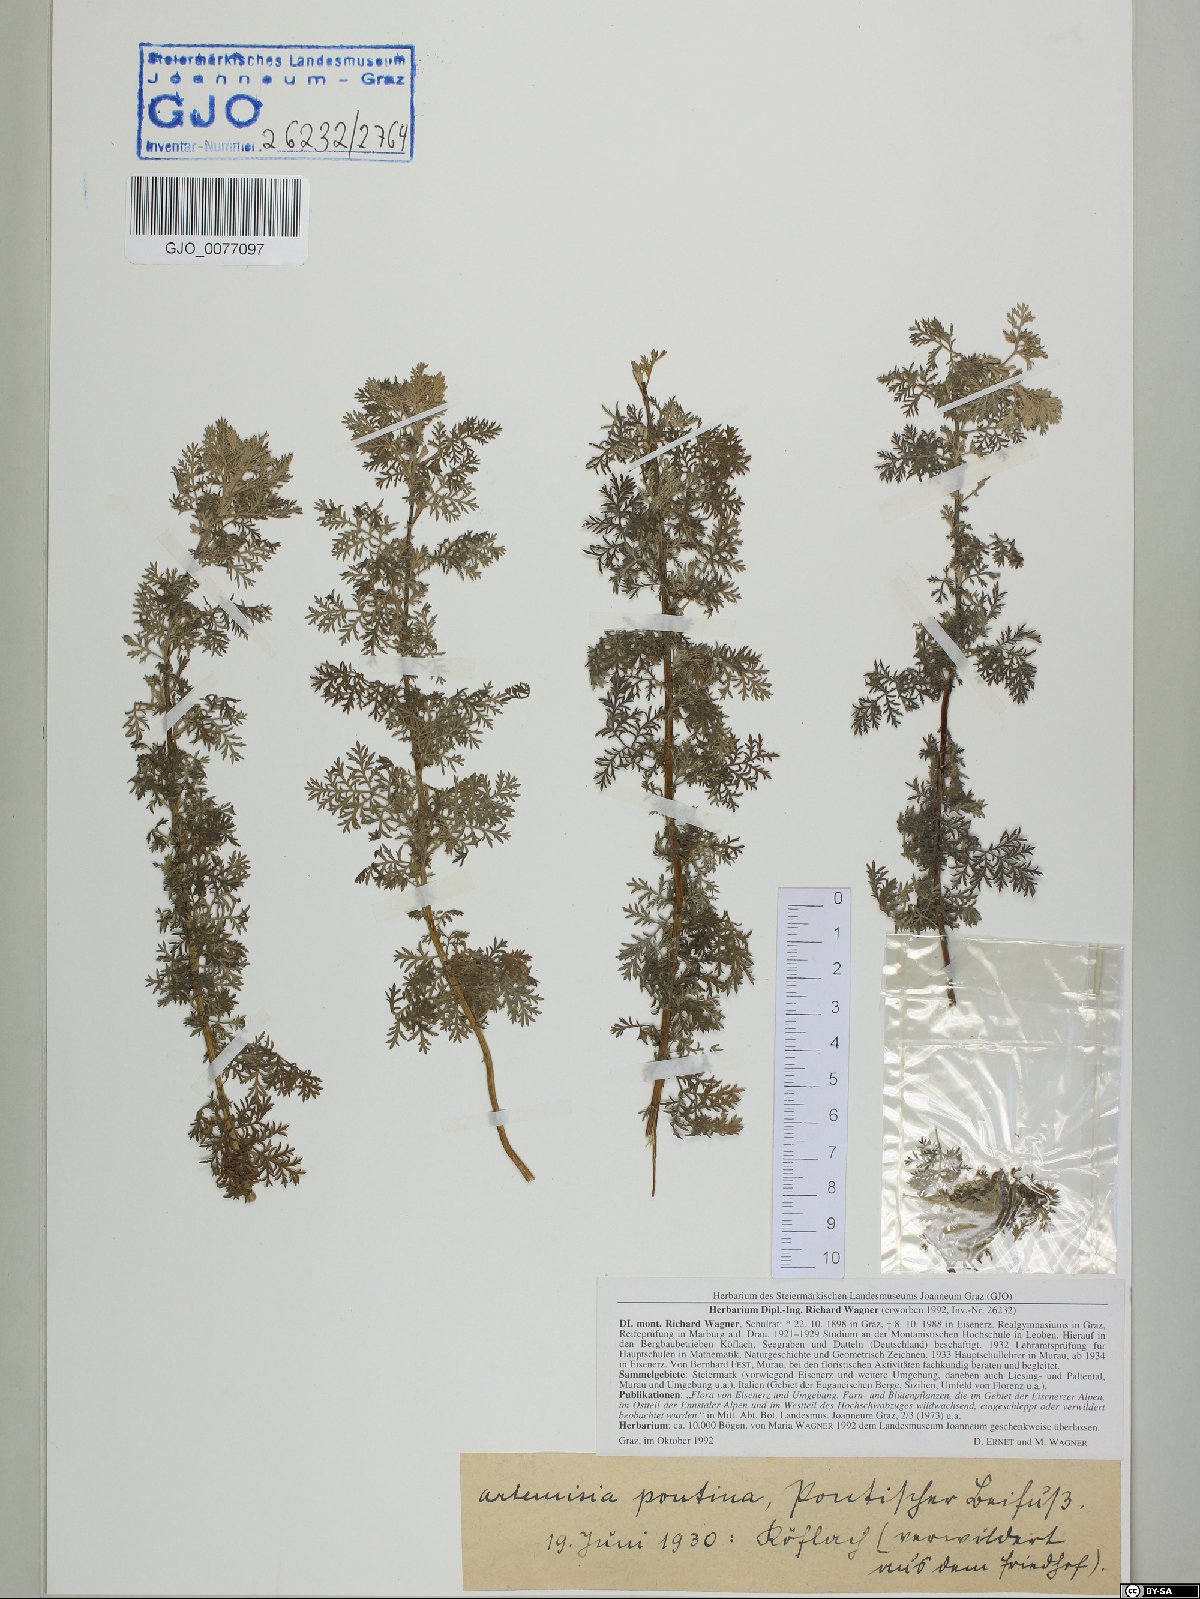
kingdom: Plantae
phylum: Tracheophyta
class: Magnoliopsida
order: Asterales
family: Asteraceae
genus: Artemisia
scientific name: Artemisia pontica
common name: Roman wormwood
